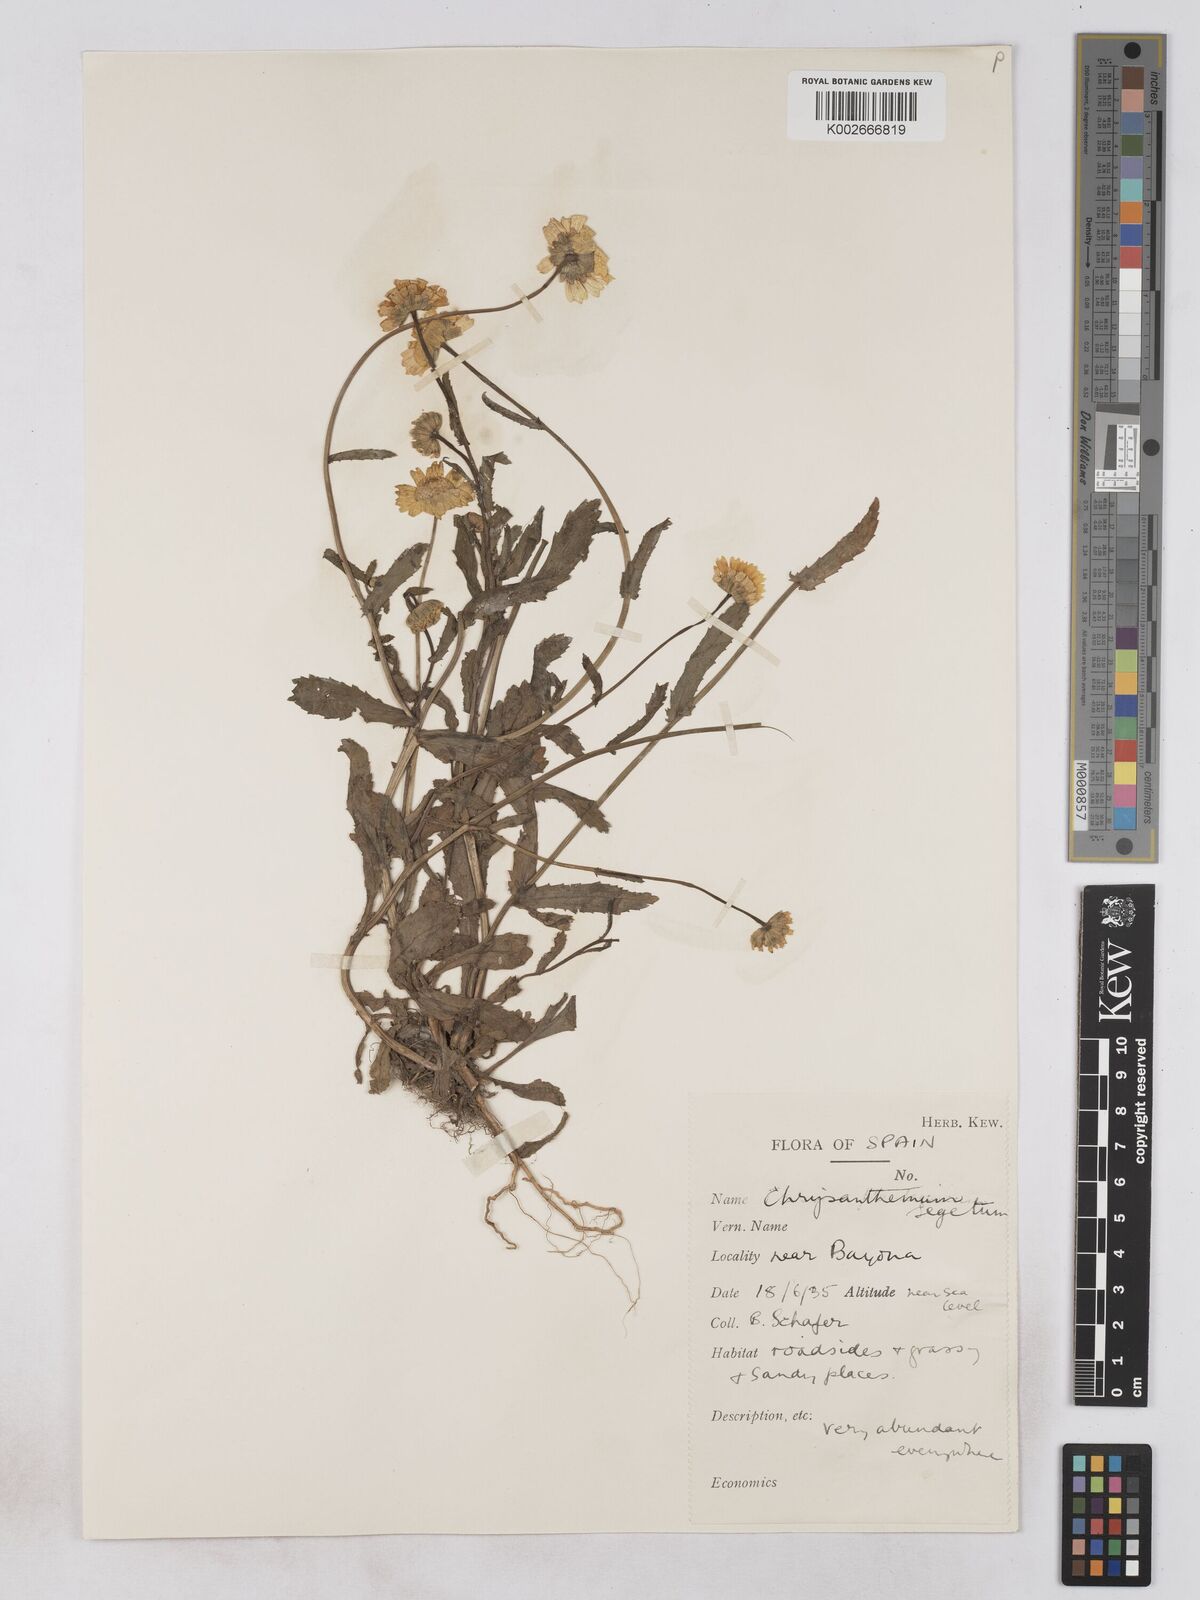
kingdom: Plantae
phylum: Tracheophyta
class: Magnoliopsida
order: Asterales
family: Asteraceae
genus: Glebionis
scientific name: Glebionis segetum
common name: Corndaisy
